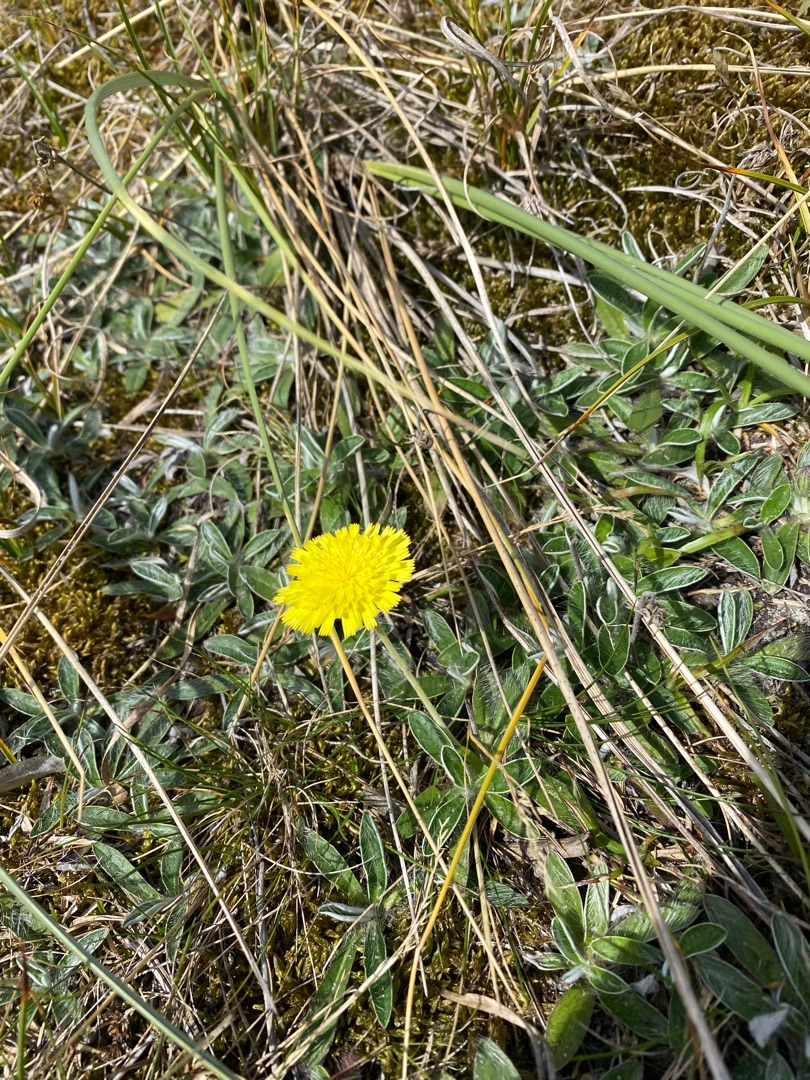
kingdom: Plantae
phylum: Tracheophyta
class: Magnoliopsida
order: Asterales
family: Asteraceae
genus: Pilosella
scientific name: Pilosella peleteriana
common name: Klit-høgeurt
